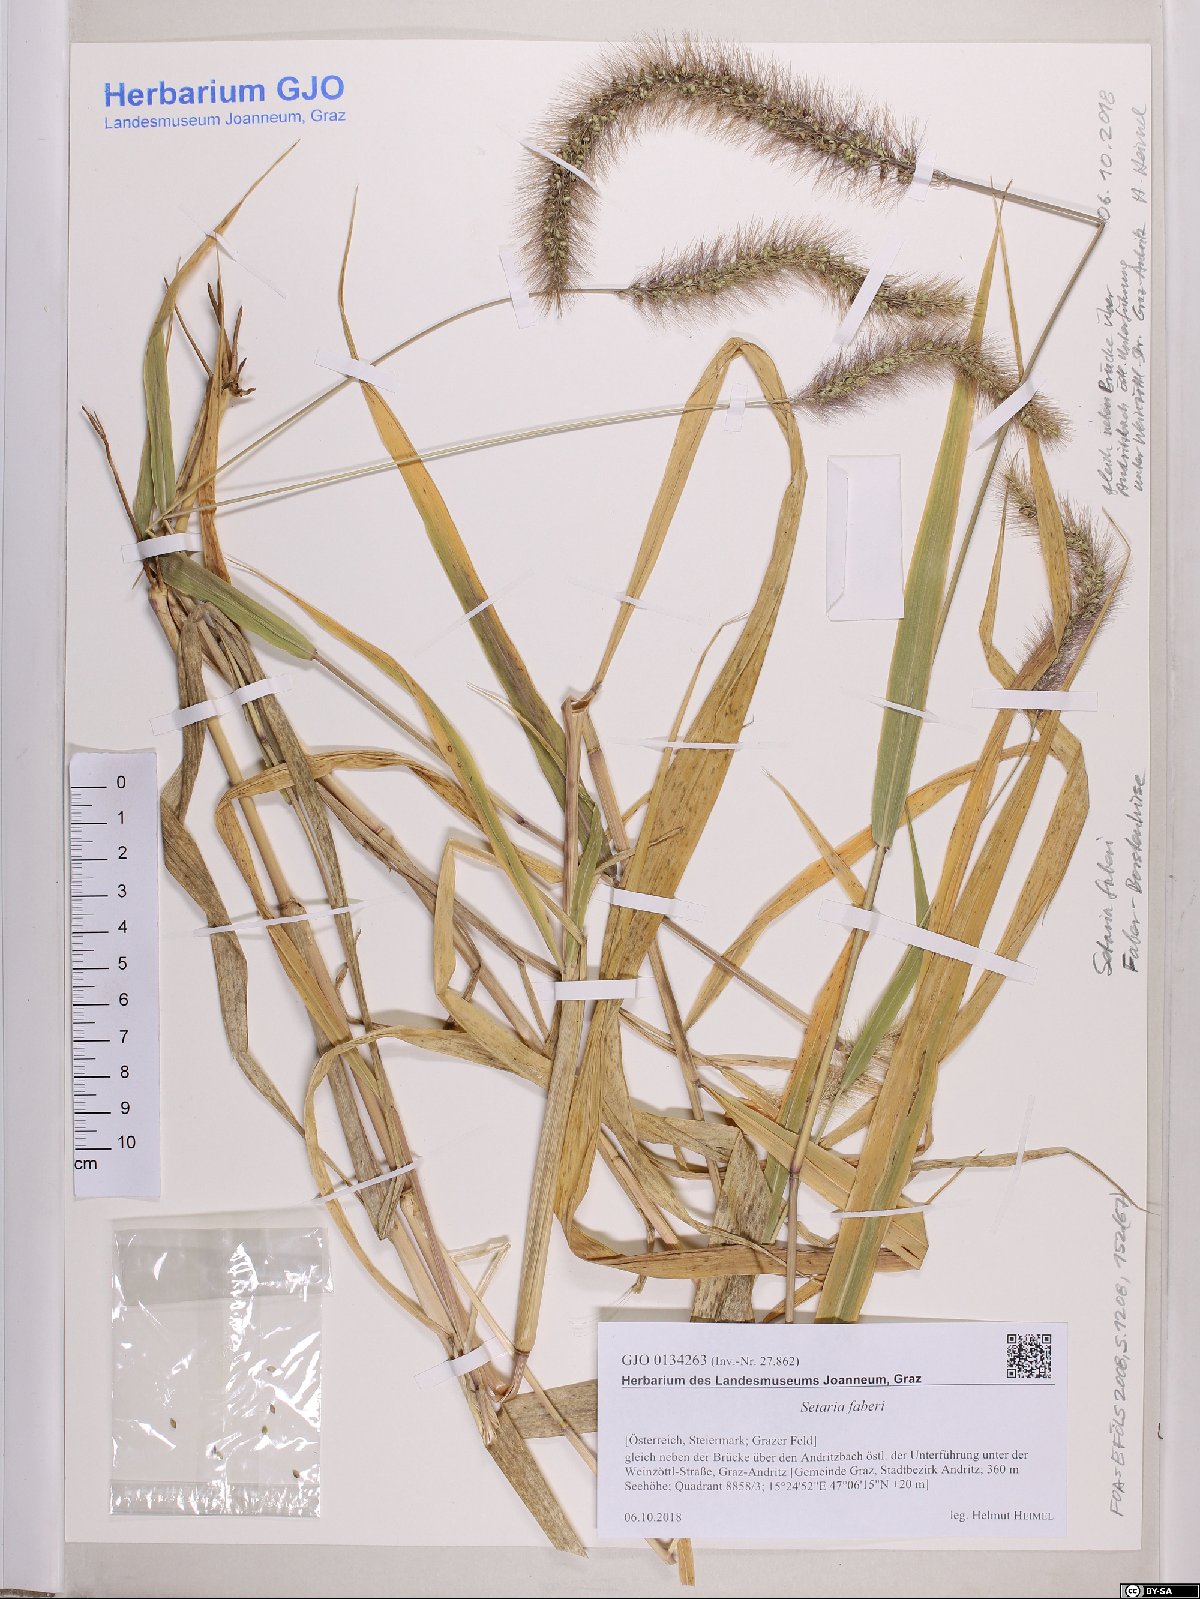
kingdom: Plantae
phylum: Tracheophyta
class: Liliopsida
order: Poales
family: Poaceae
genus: Setaria
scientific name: Setaria faberi
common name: Nodding bristle-grass
